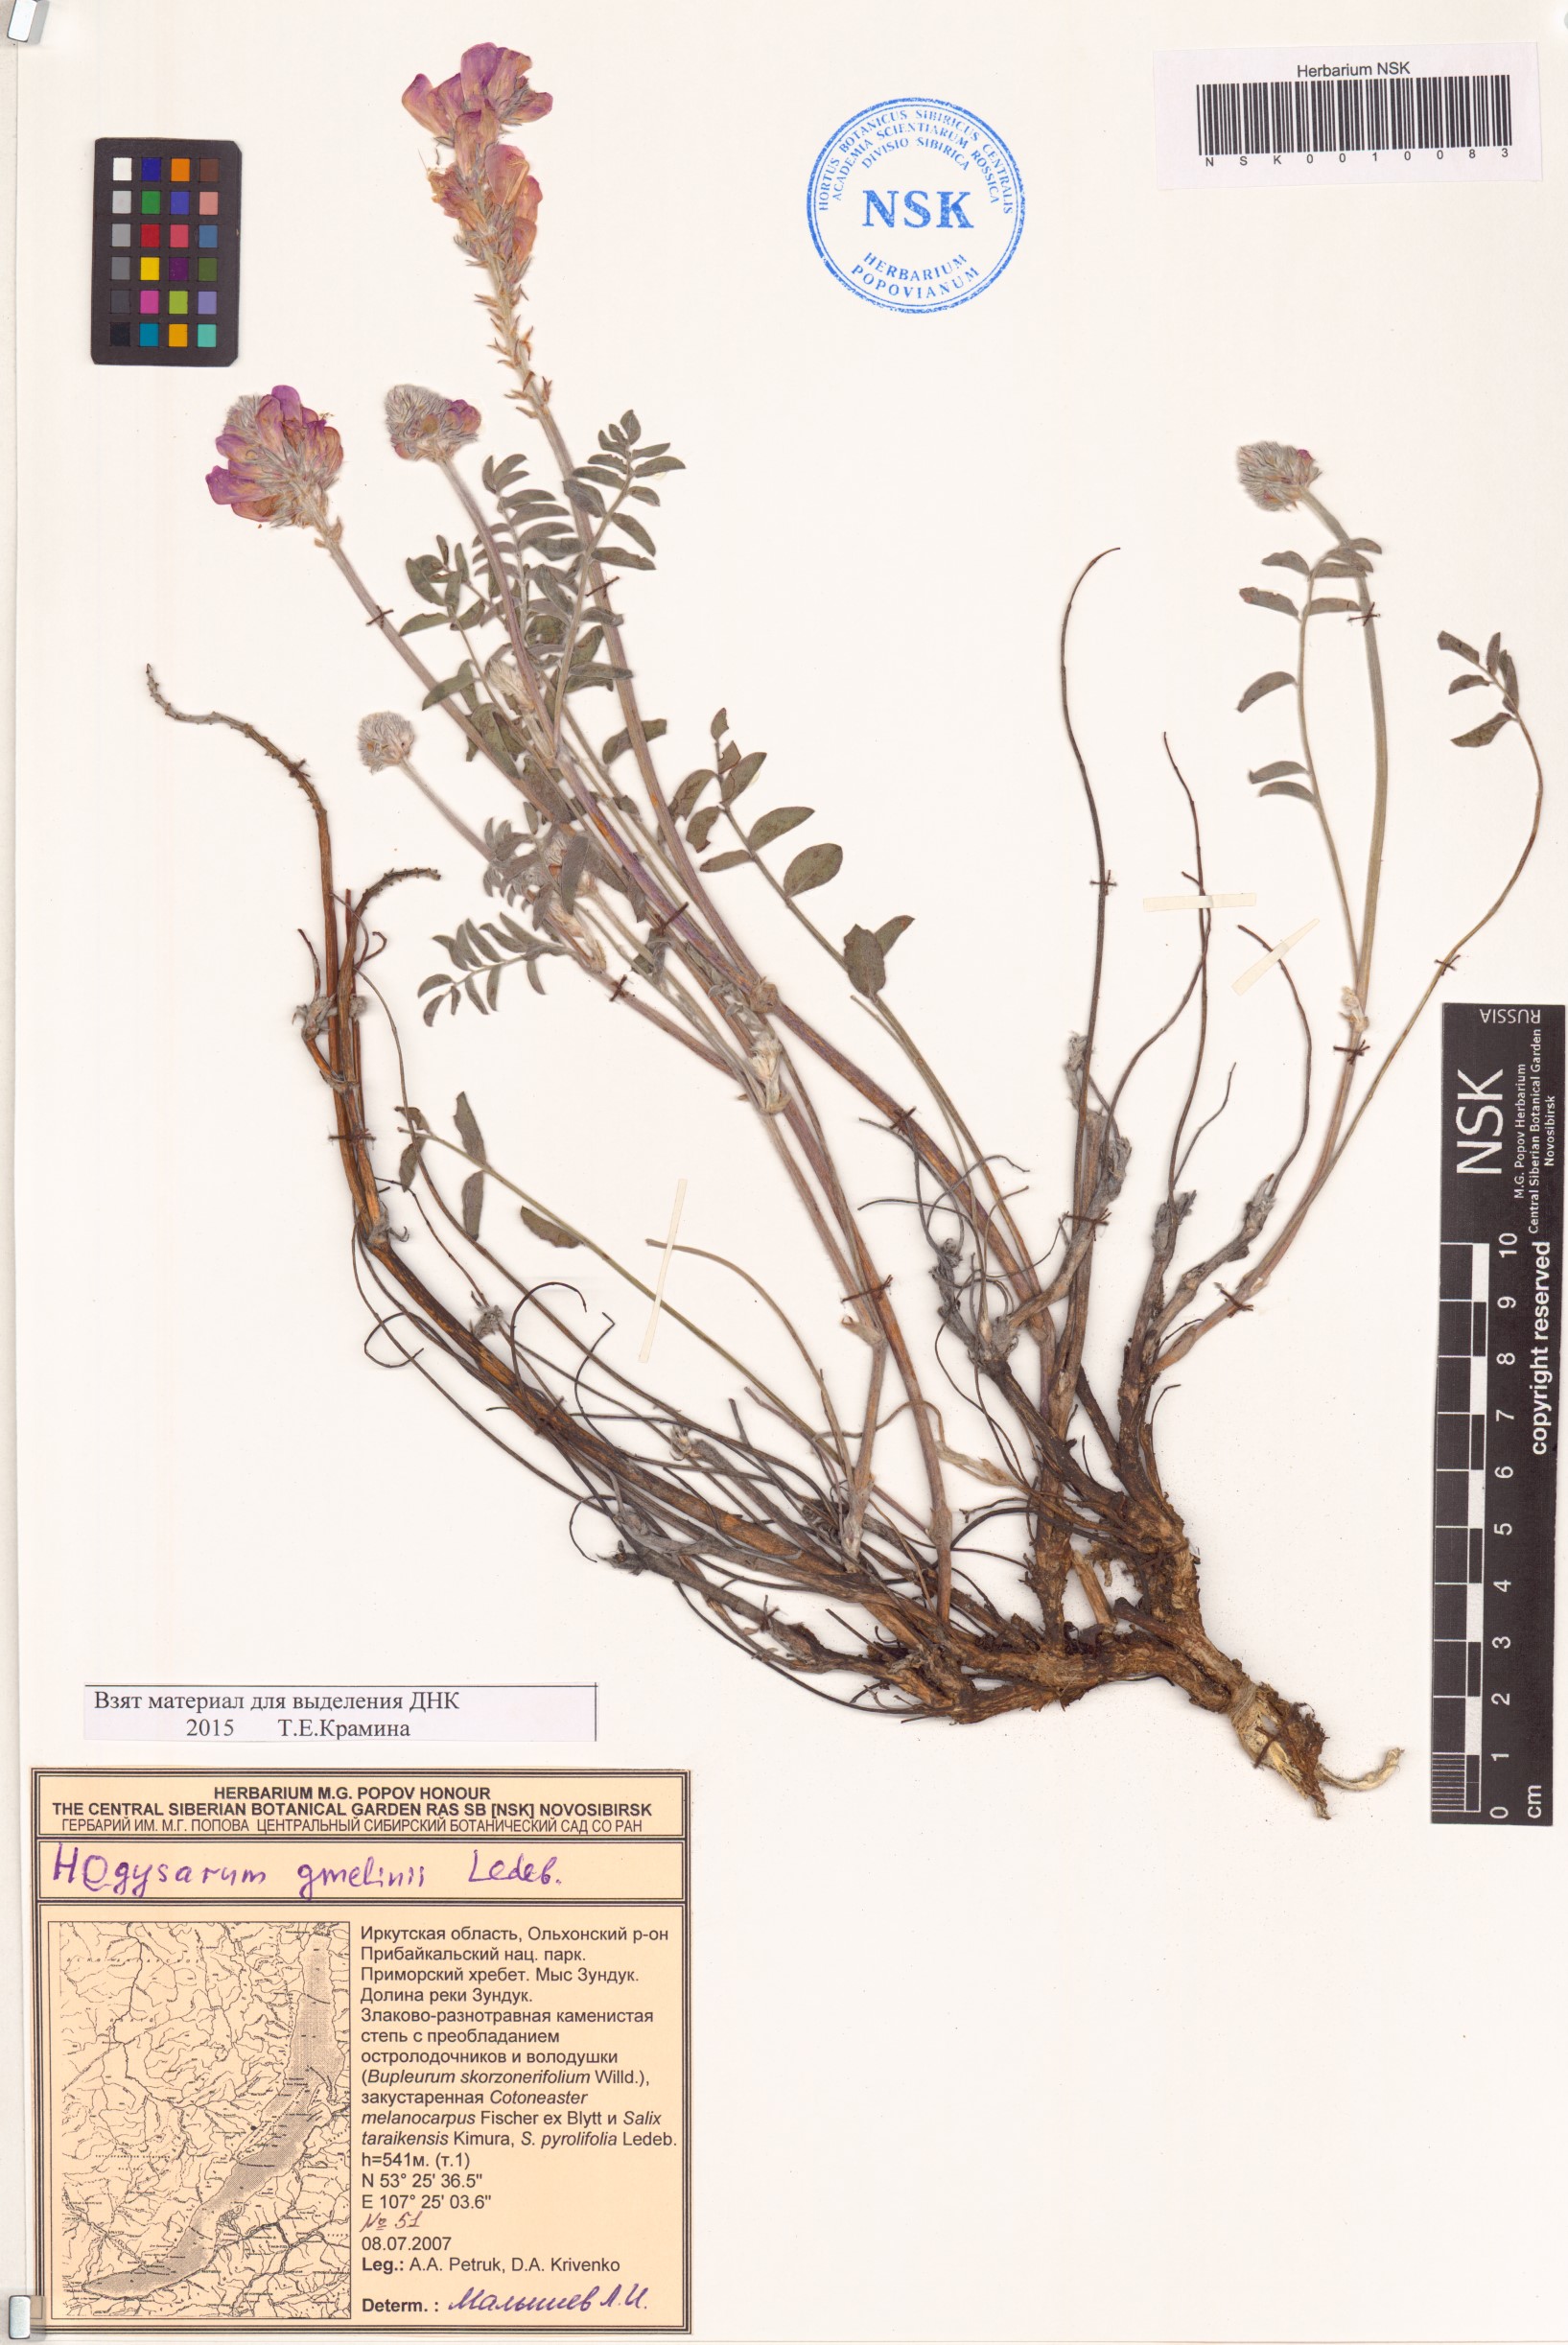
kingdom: Plantae
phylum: Tracheophyta
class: Magnoliopsida
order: Fabales
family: Fabaceae
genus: Hedysarum
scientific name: Hedysarum gmelinii
